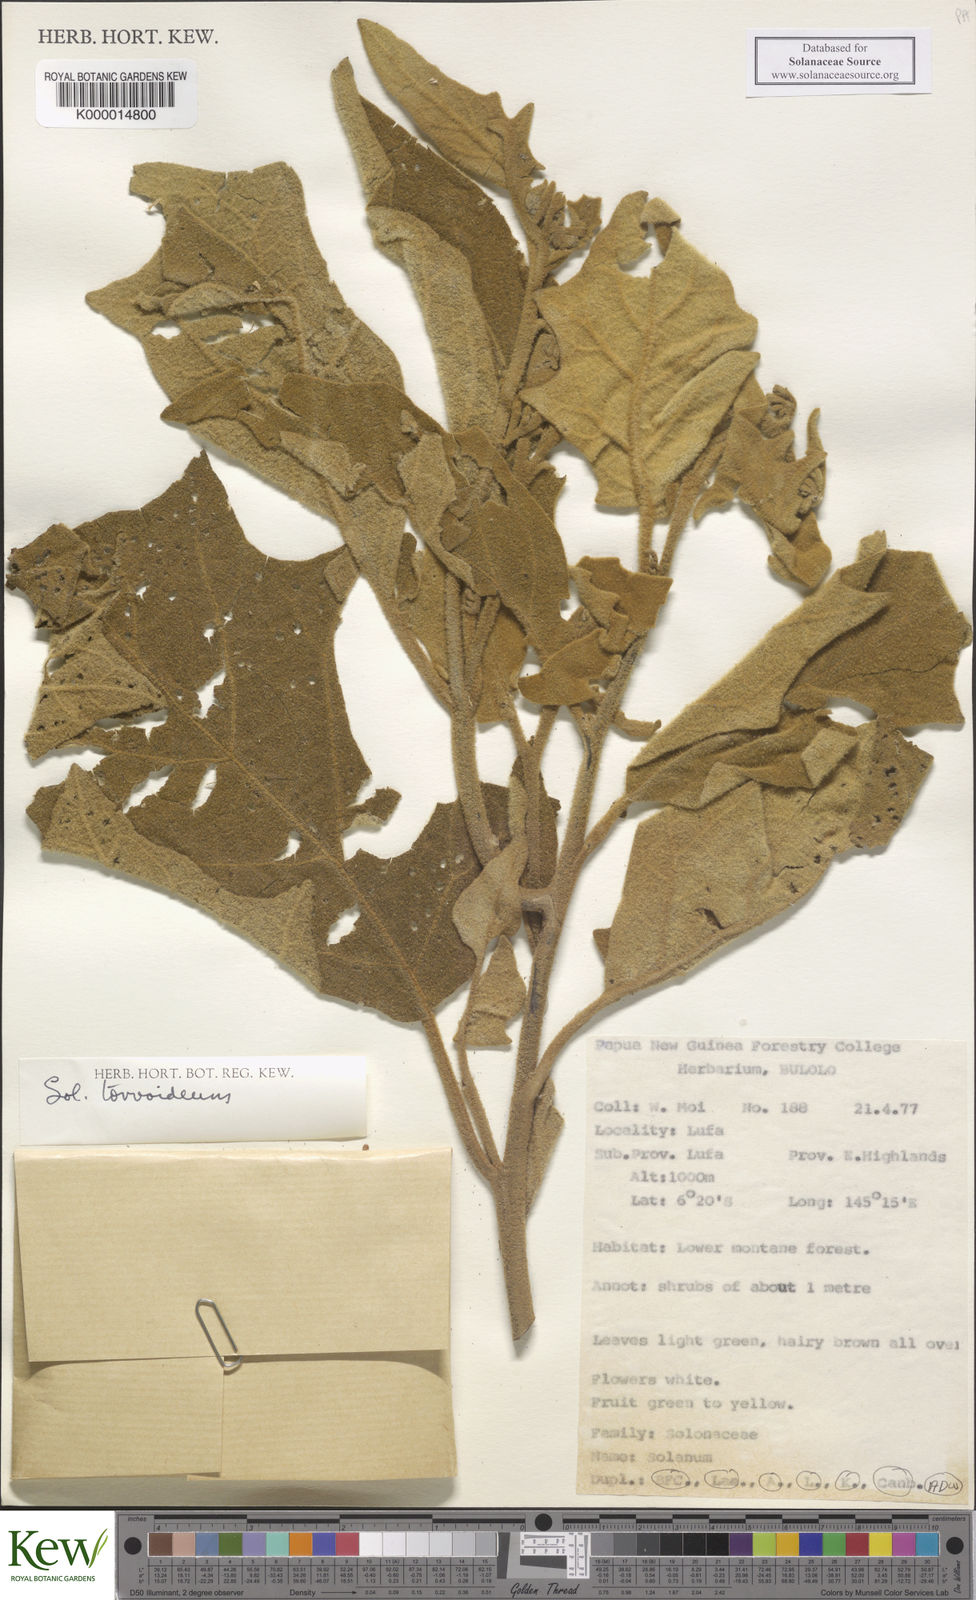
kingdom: Plantae
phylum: Tracheophyta
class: Magnoliopsida
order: Solanales
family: Solanaceae
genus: Solanum
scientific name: Solanum torvoideum
